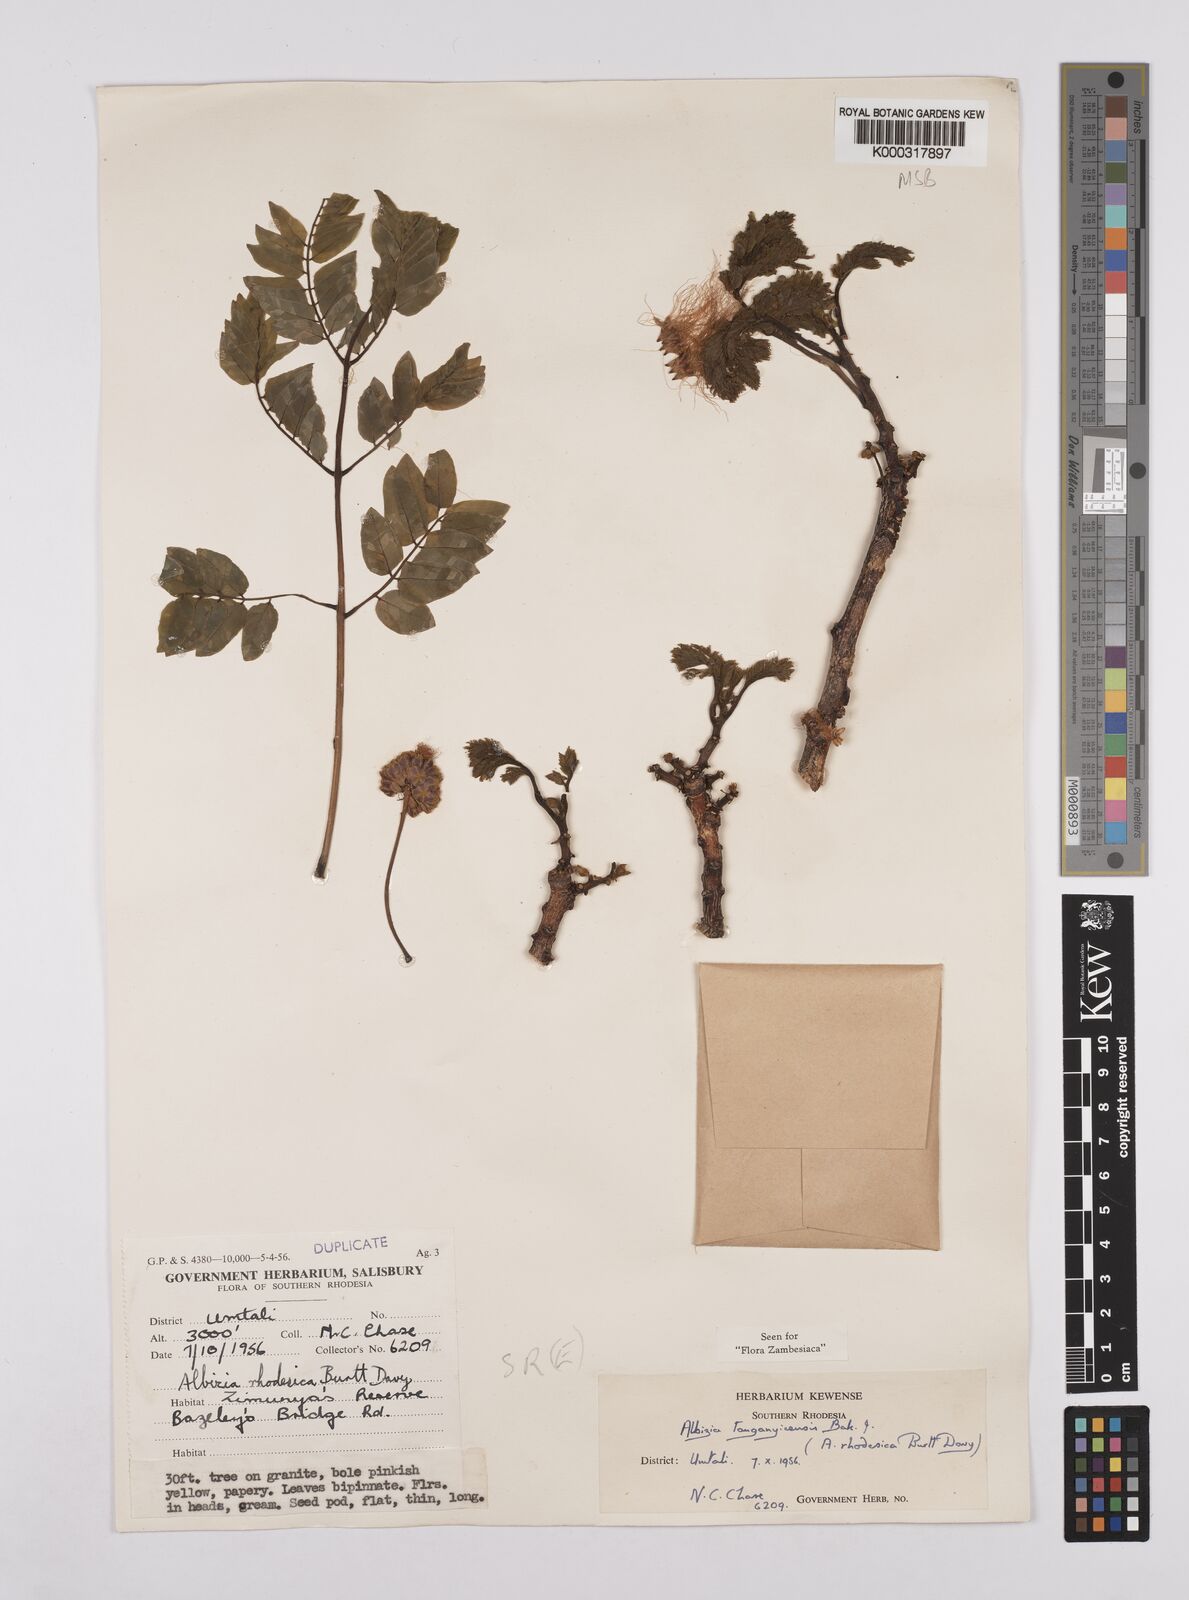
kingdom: Plantae
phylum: Tracheophyta
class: Magnoliopsida
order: Fabales
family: Fabaceae
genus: Albizia
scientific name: Albizia tanganyicensis
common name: Paperbark false thorn
